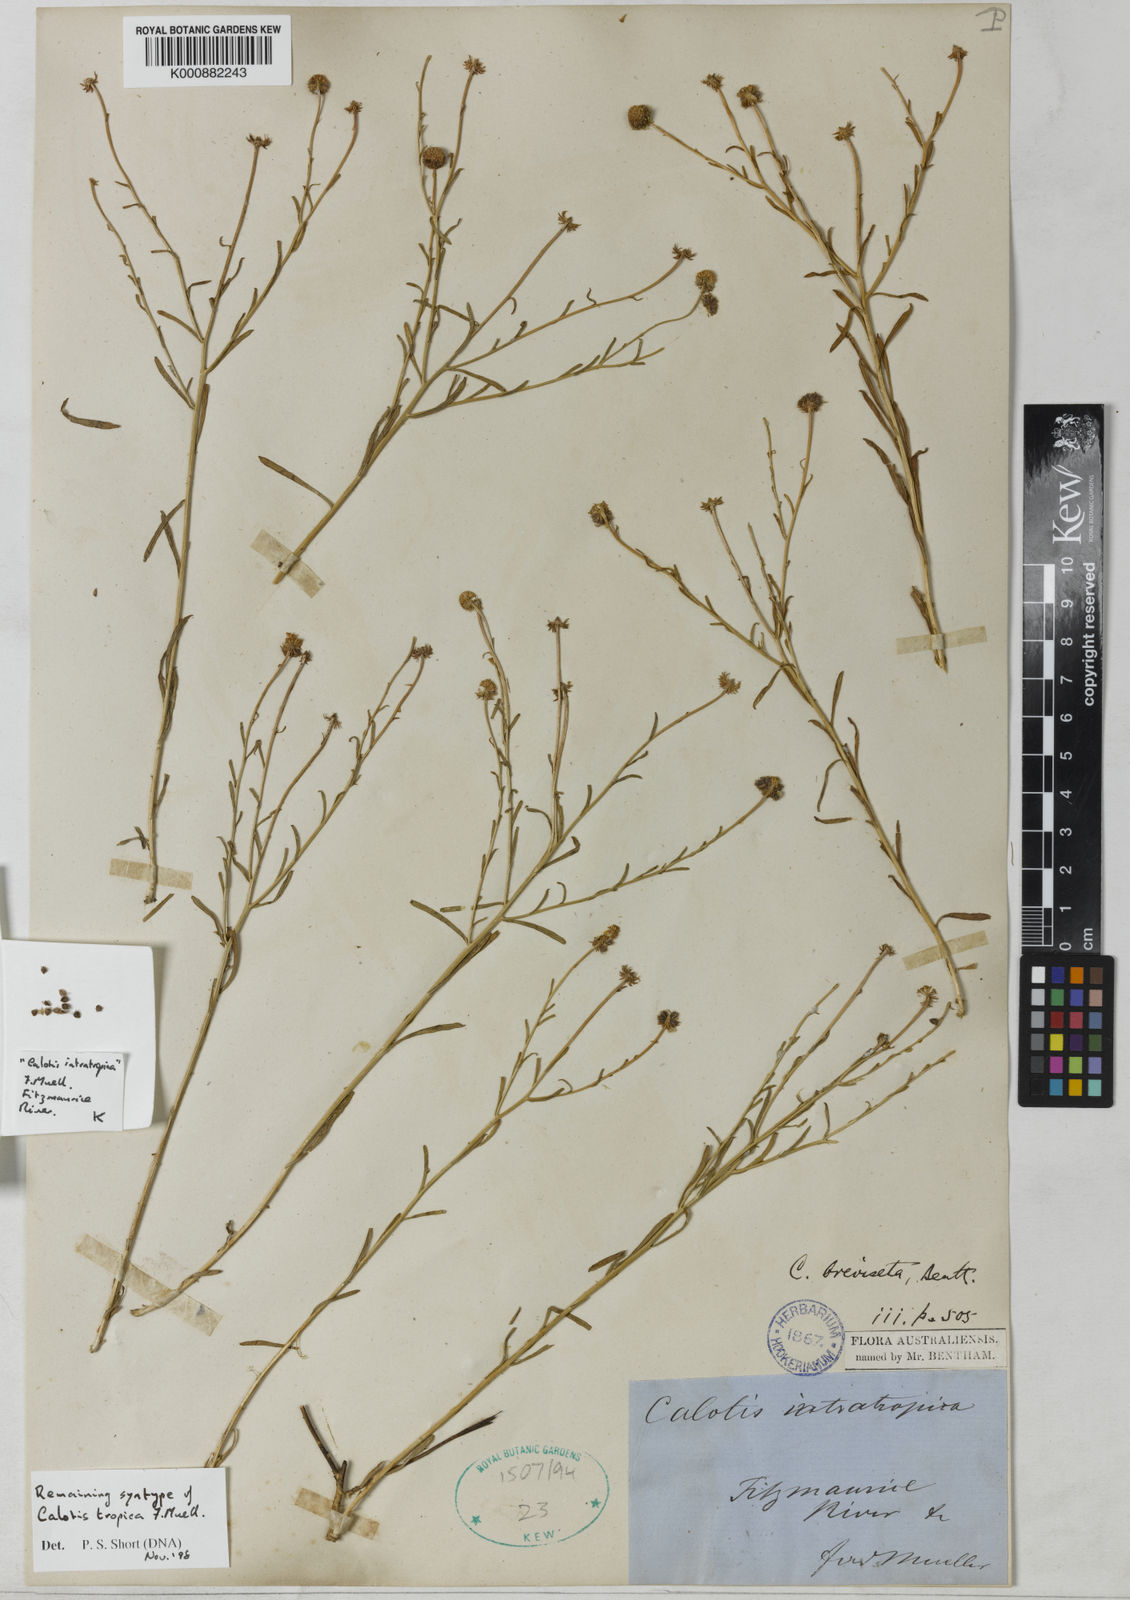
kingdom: Plantae
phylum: Tracheophyta
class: Magnoliopsida
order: Asterales
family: Asteraceae
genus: Calotis
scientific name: Calotis breviseta
